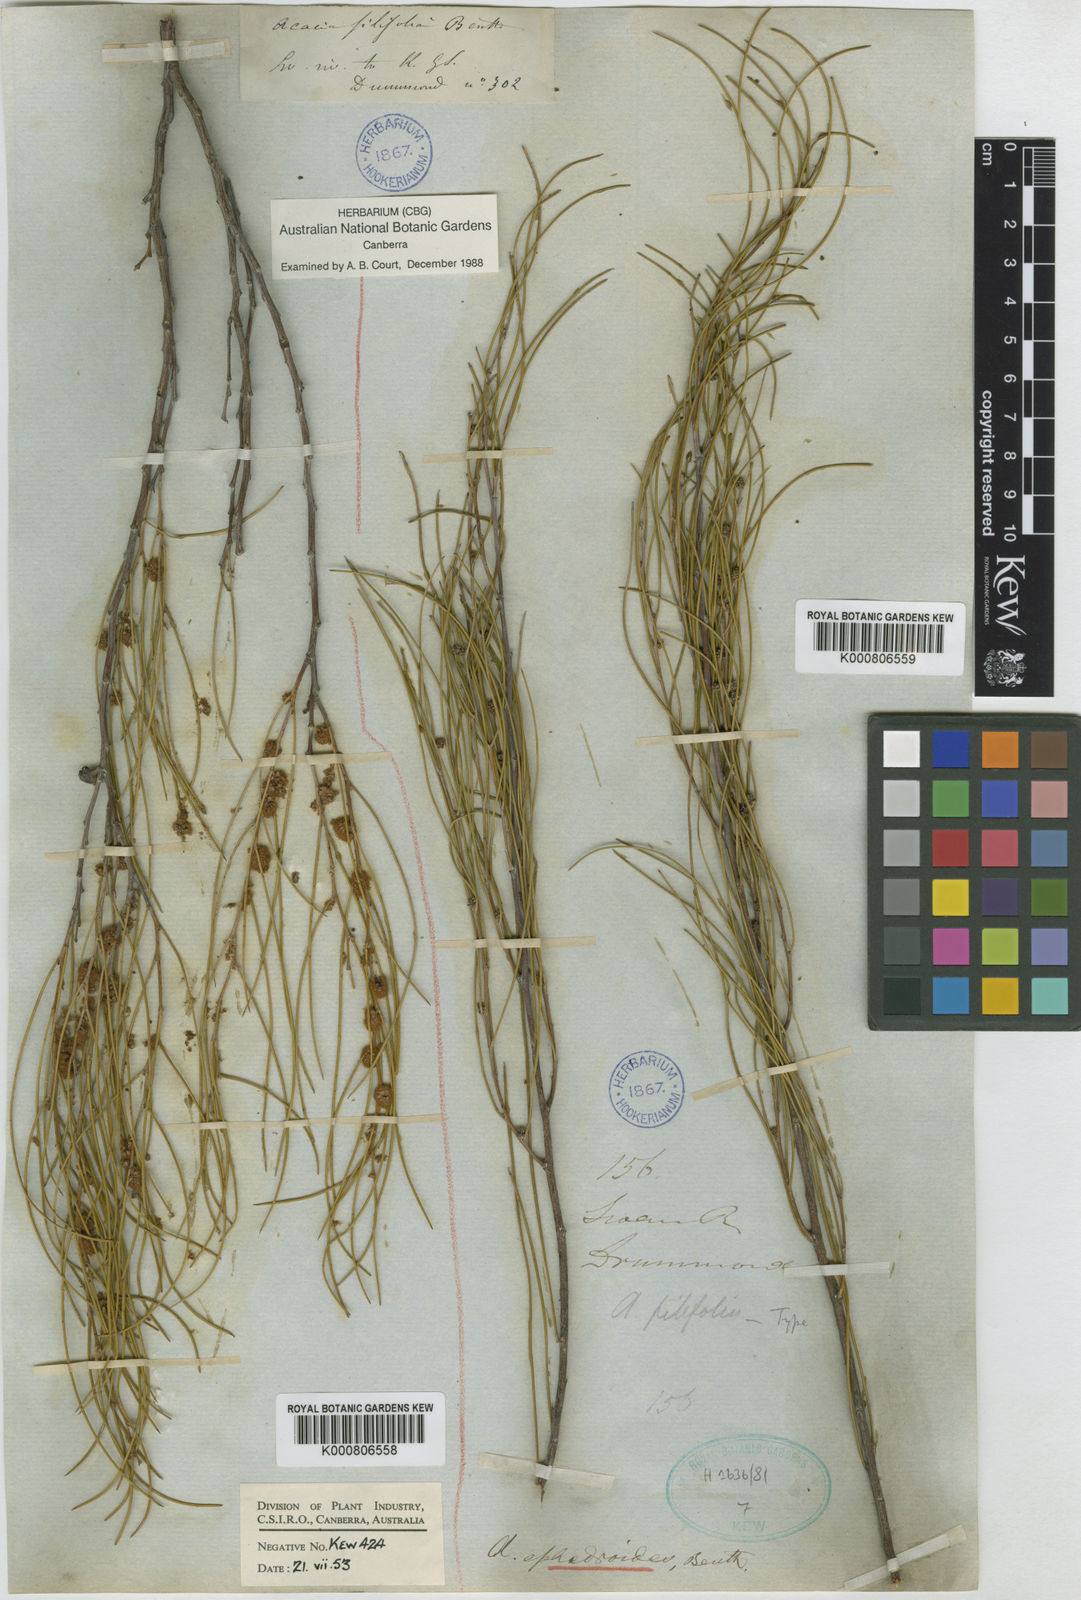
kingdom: Plantae
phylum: Tracheophyta
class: Magnoliopsida
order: Fabales
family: Fabaceae
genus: Acacia
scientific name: Acacia ephedroides
